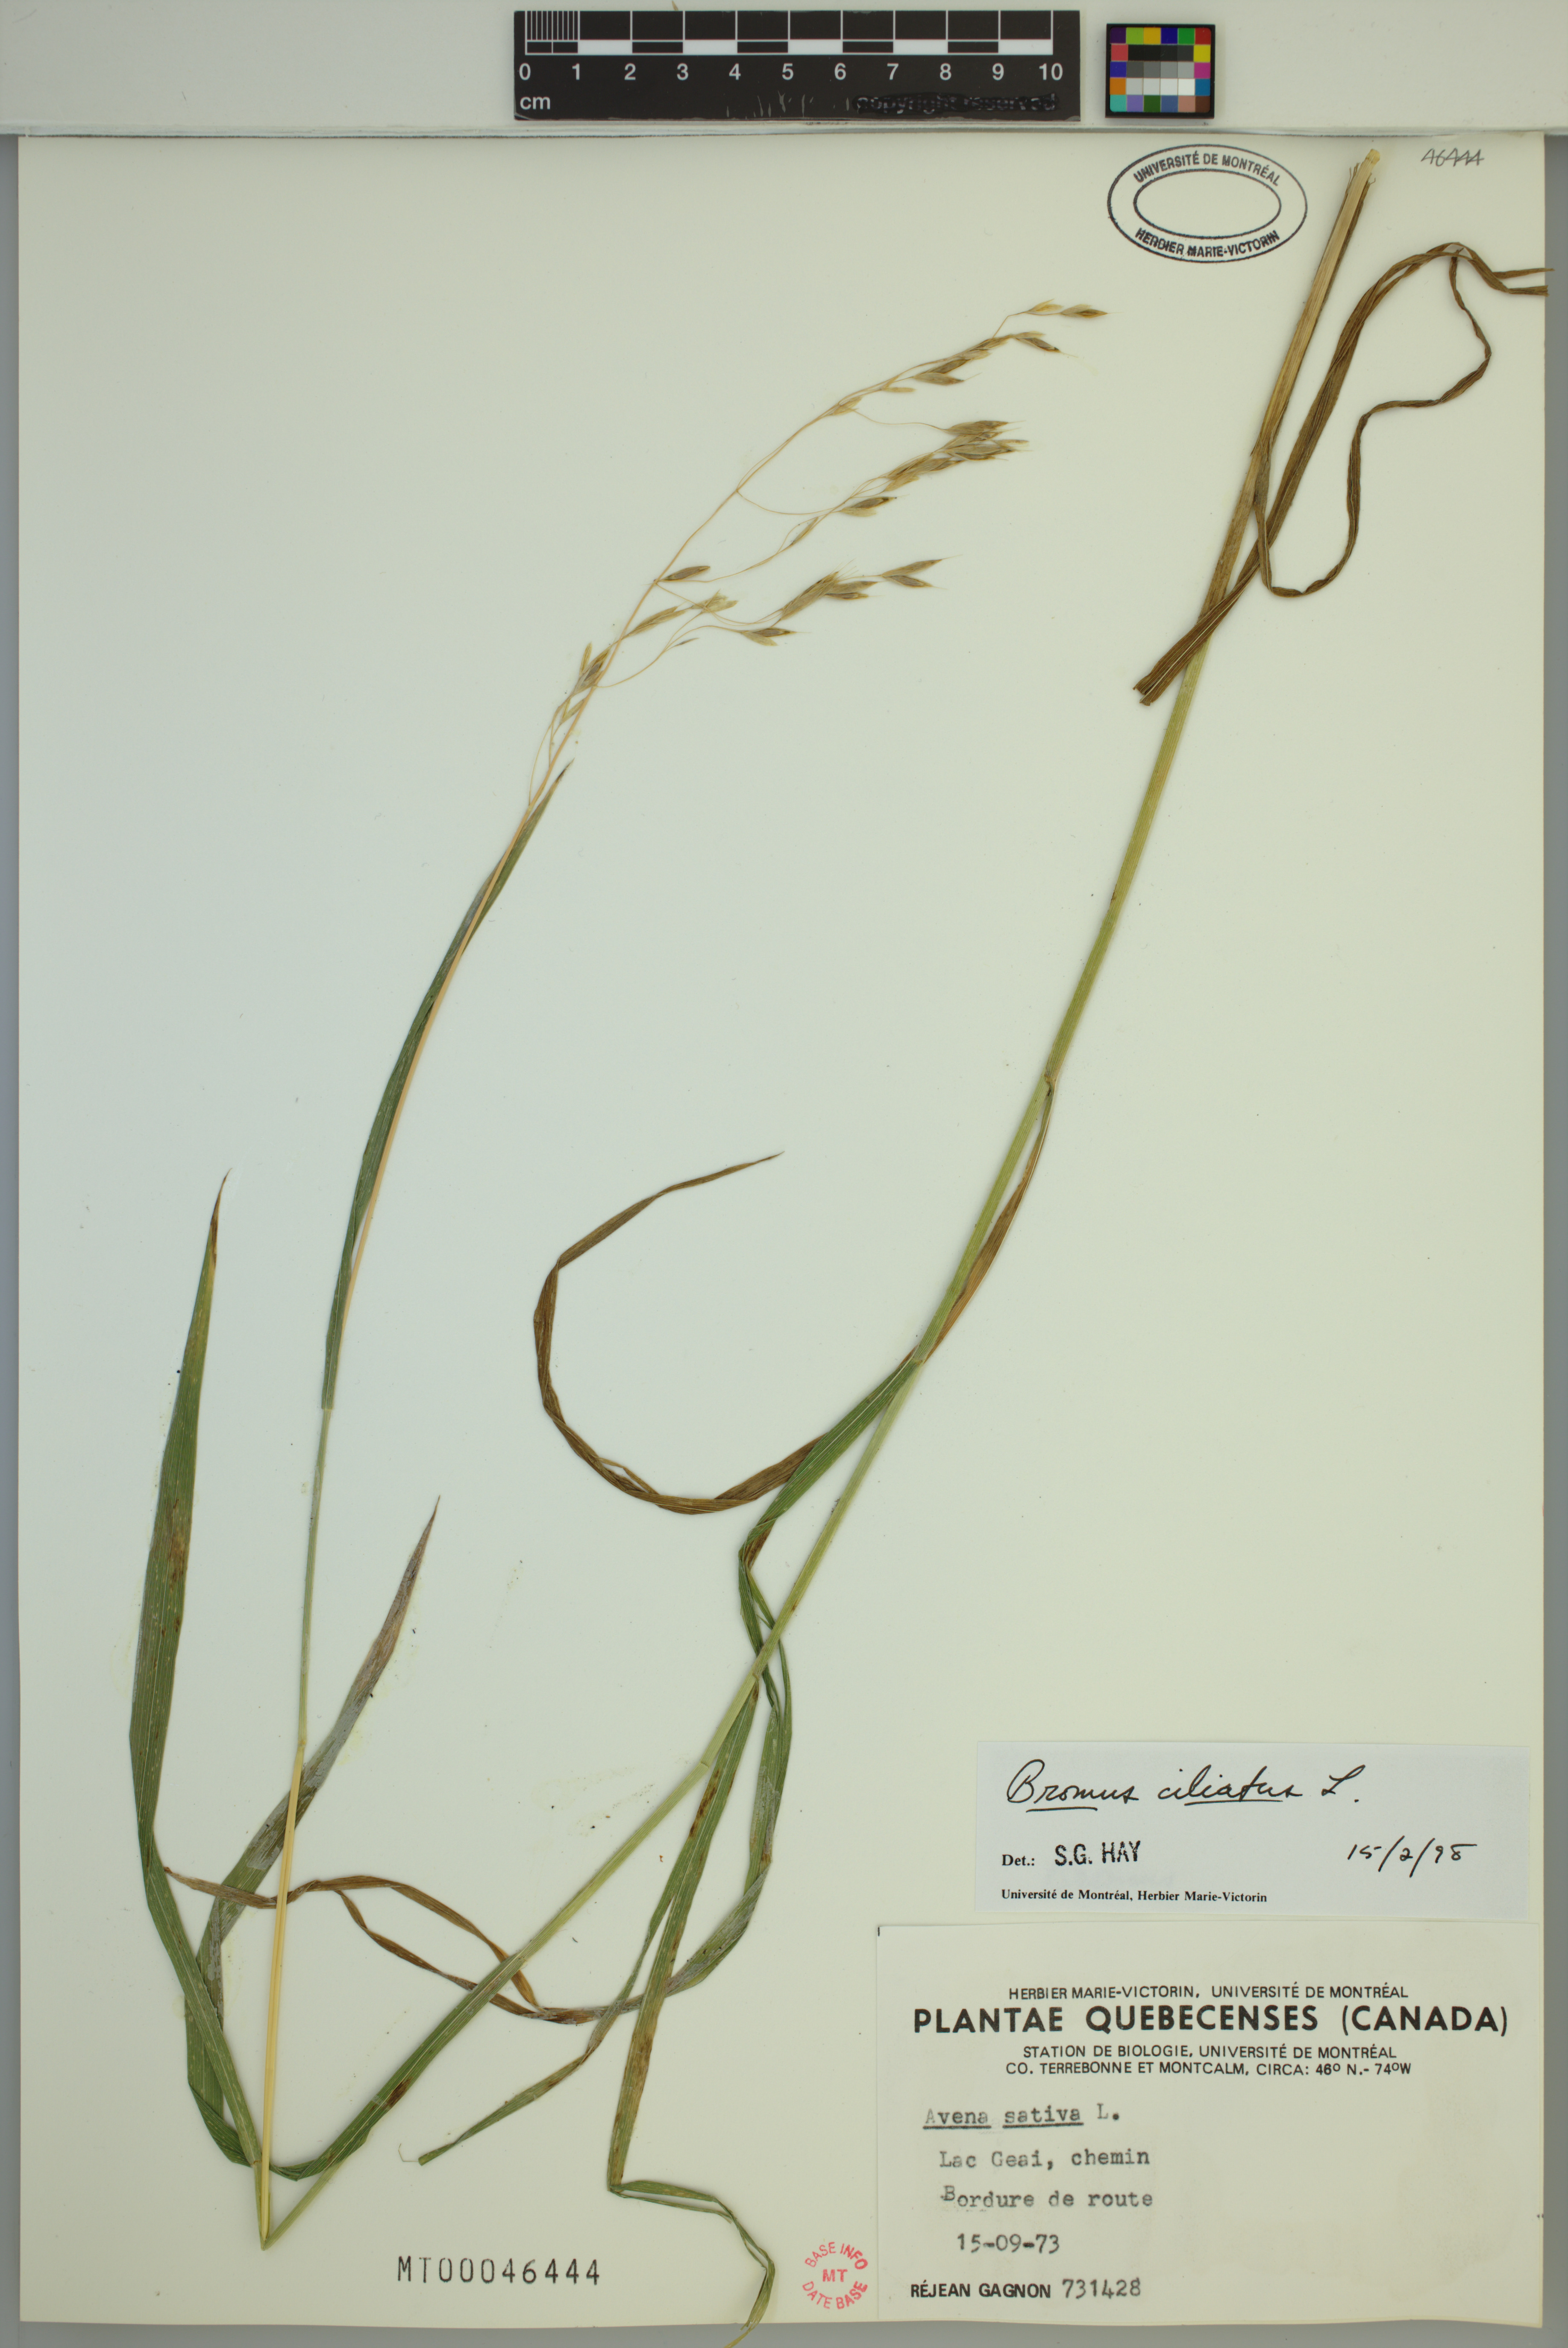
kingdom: Plantae
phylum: Tracheophyta
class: Liliopsida
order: Poales
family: Poaceae
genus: Bromus
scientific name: Bromus ciliatus
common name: Fringe brome
